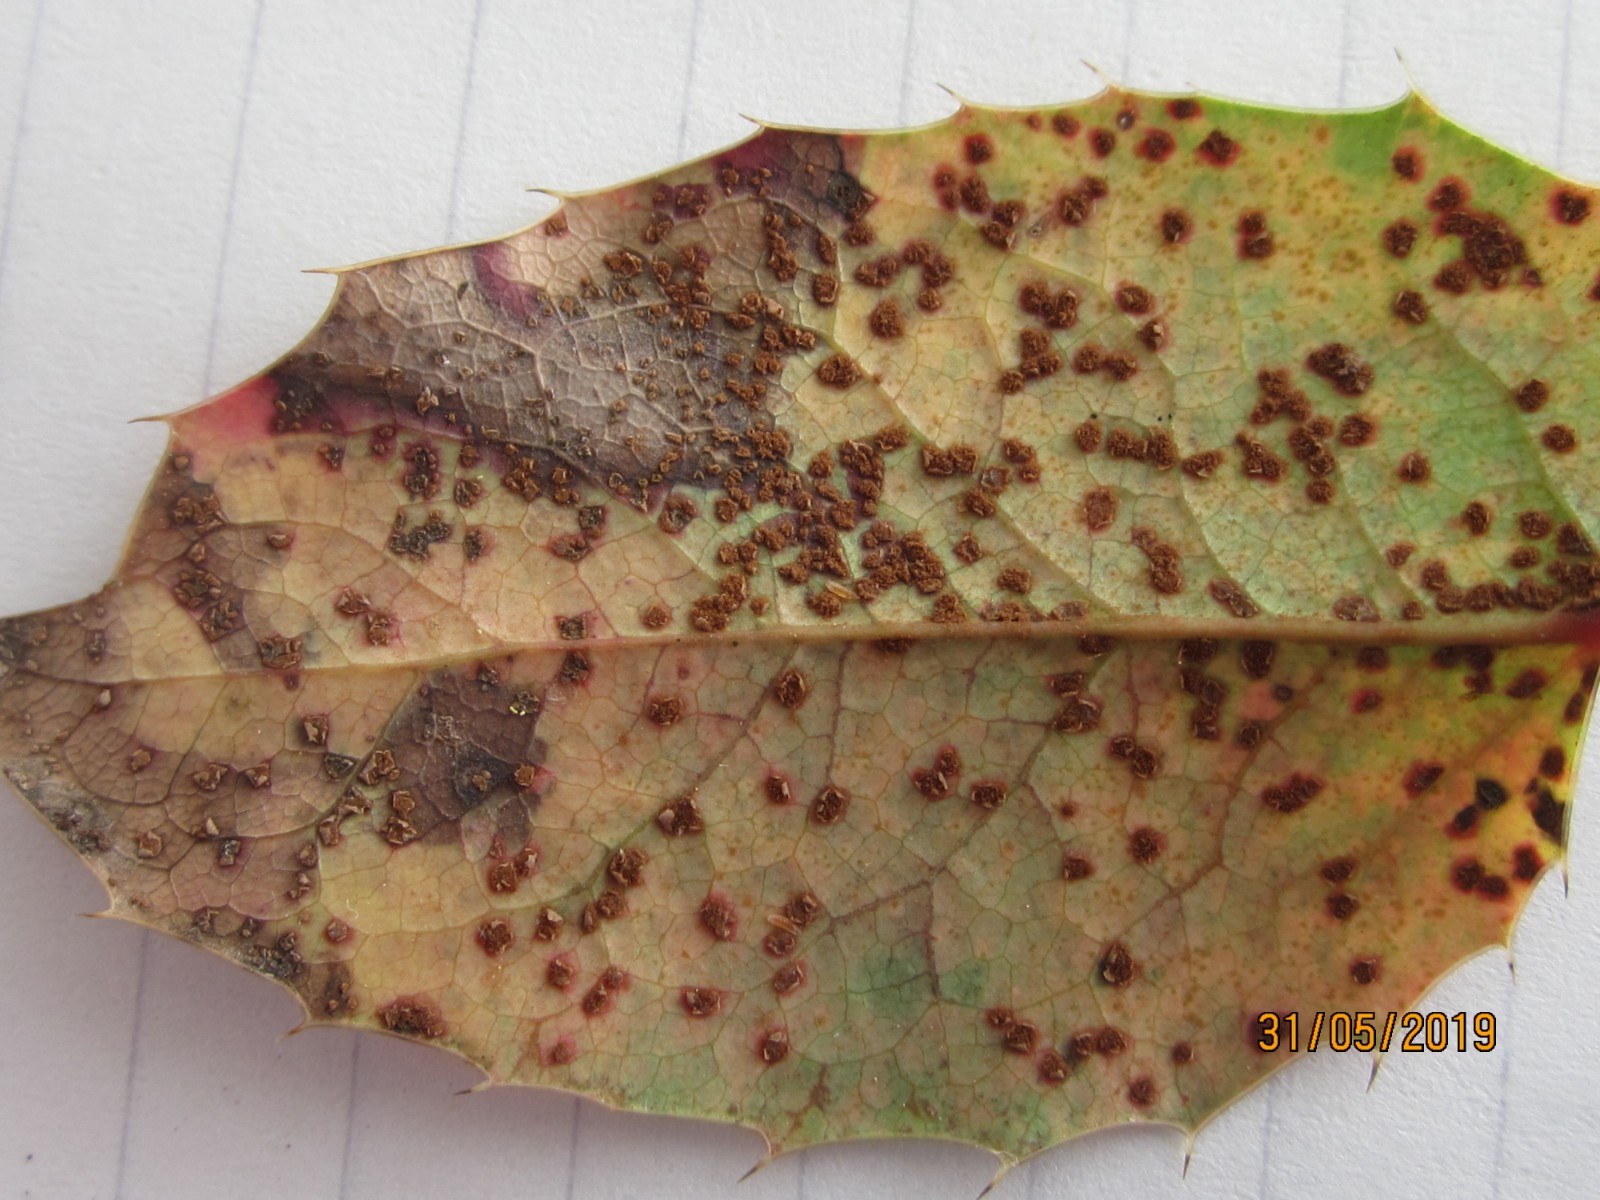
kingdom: Fungi
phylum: Basidiomycota
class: Pucciniomycetes
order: Pucciniales
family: Pucciniaceae
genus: Cumminsiella
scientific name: Cumminsiella mirabilissima
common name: mahonierust
